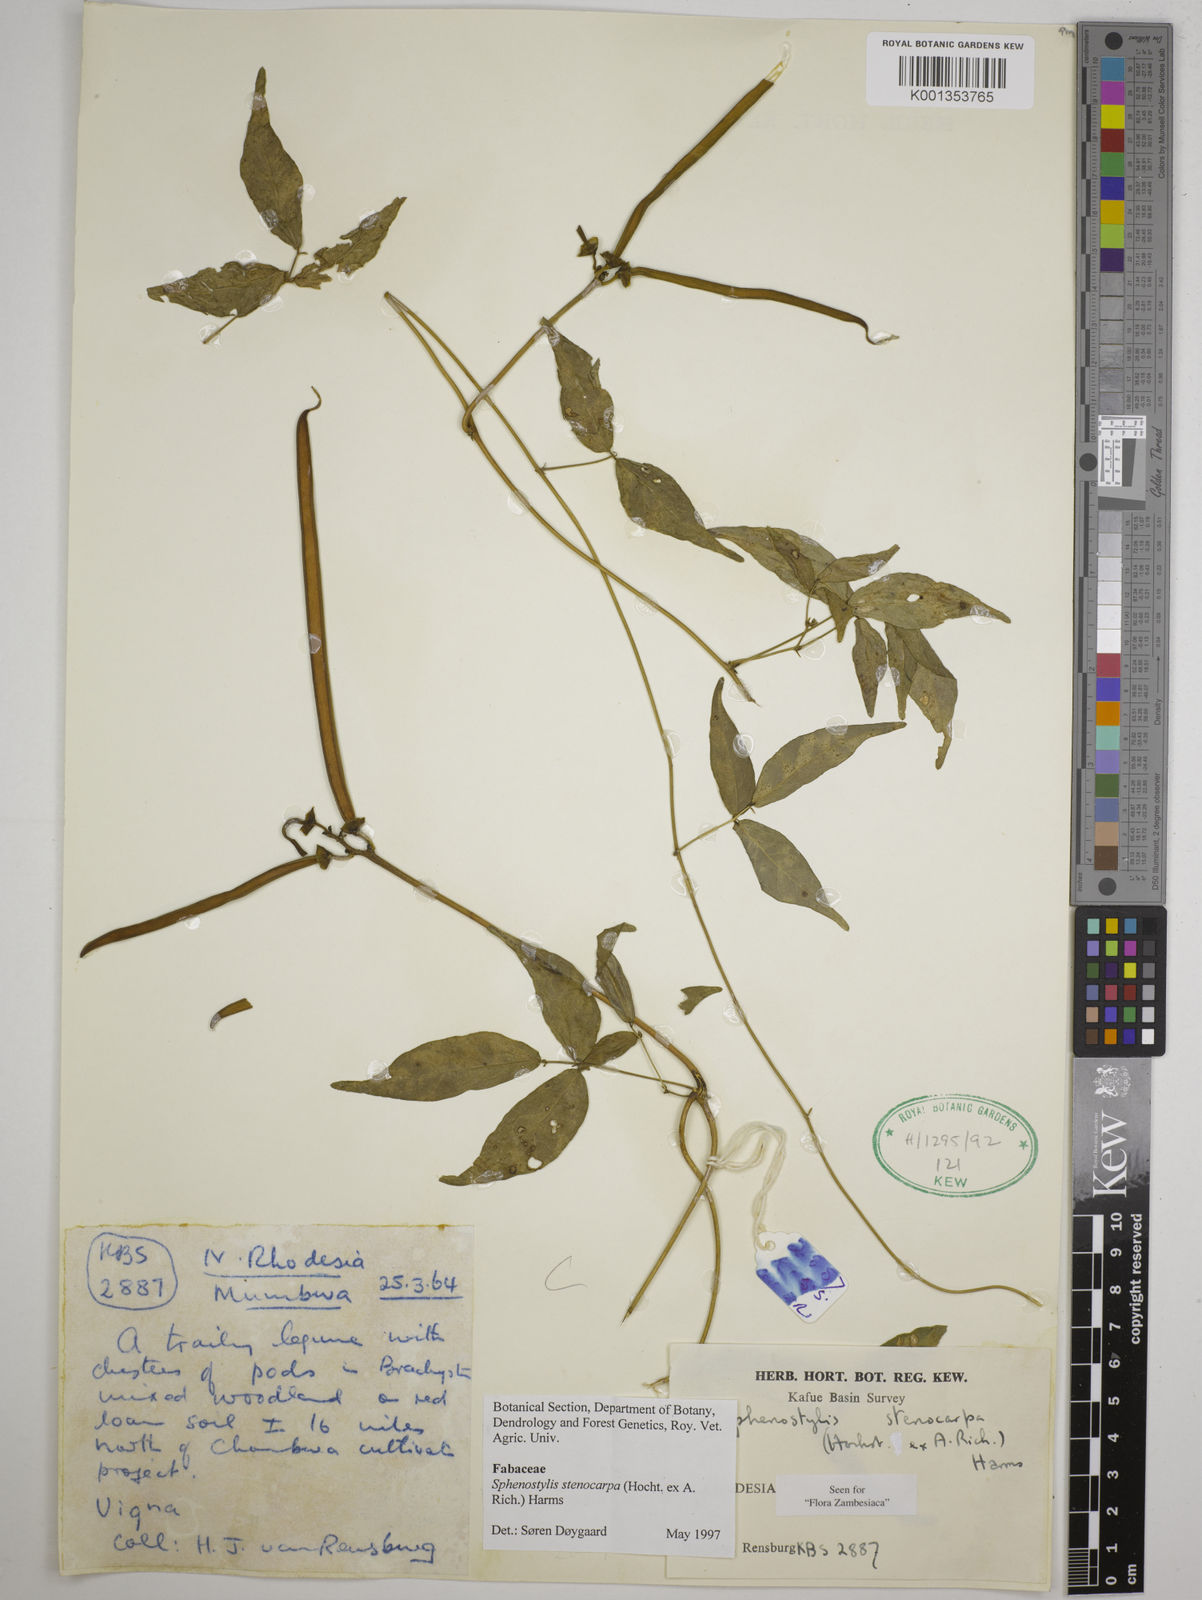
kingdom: Plantae
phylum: Tracheophyta
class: Magnoliopsida
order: Fabales
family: Fabaceae
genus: Sphenostylis
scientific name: Sphenostylis stenocarpa
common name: Yam-pea
